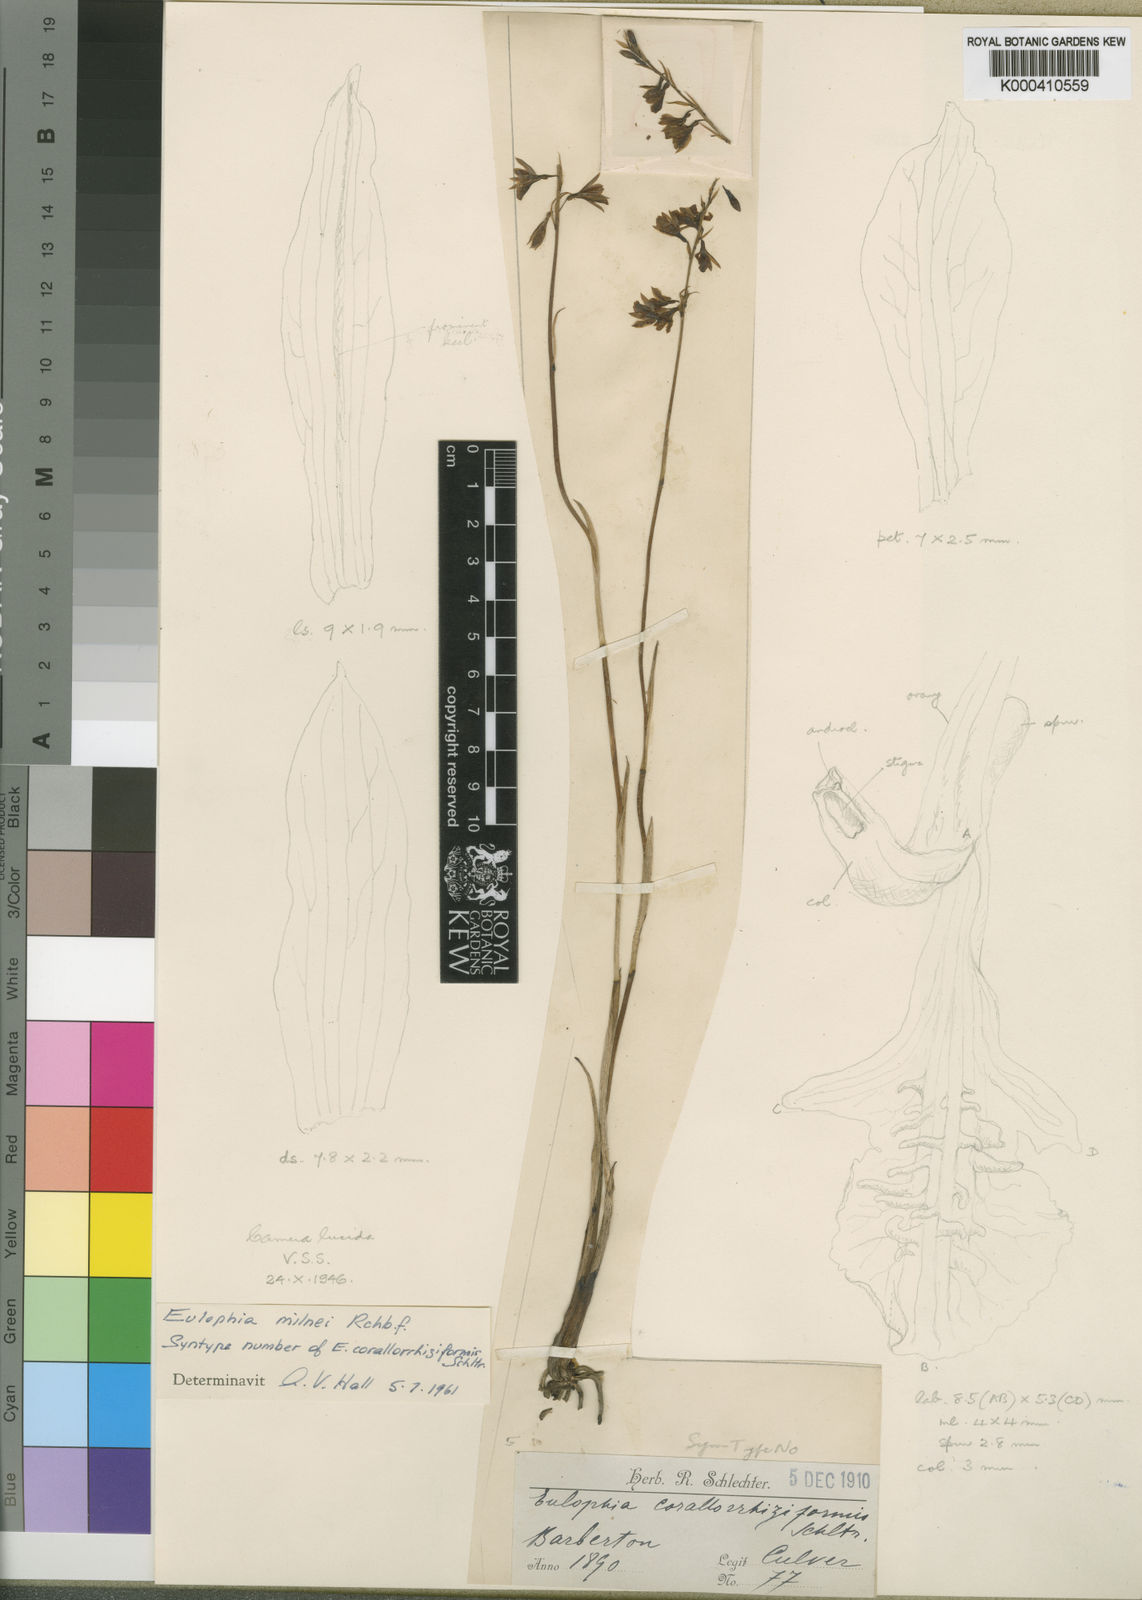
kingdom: Plantae
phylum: Tracheophyta
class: Liliopsida
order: Asparagales
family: Orchidaceae
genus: Eulophia
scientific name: Eulophia milnei
